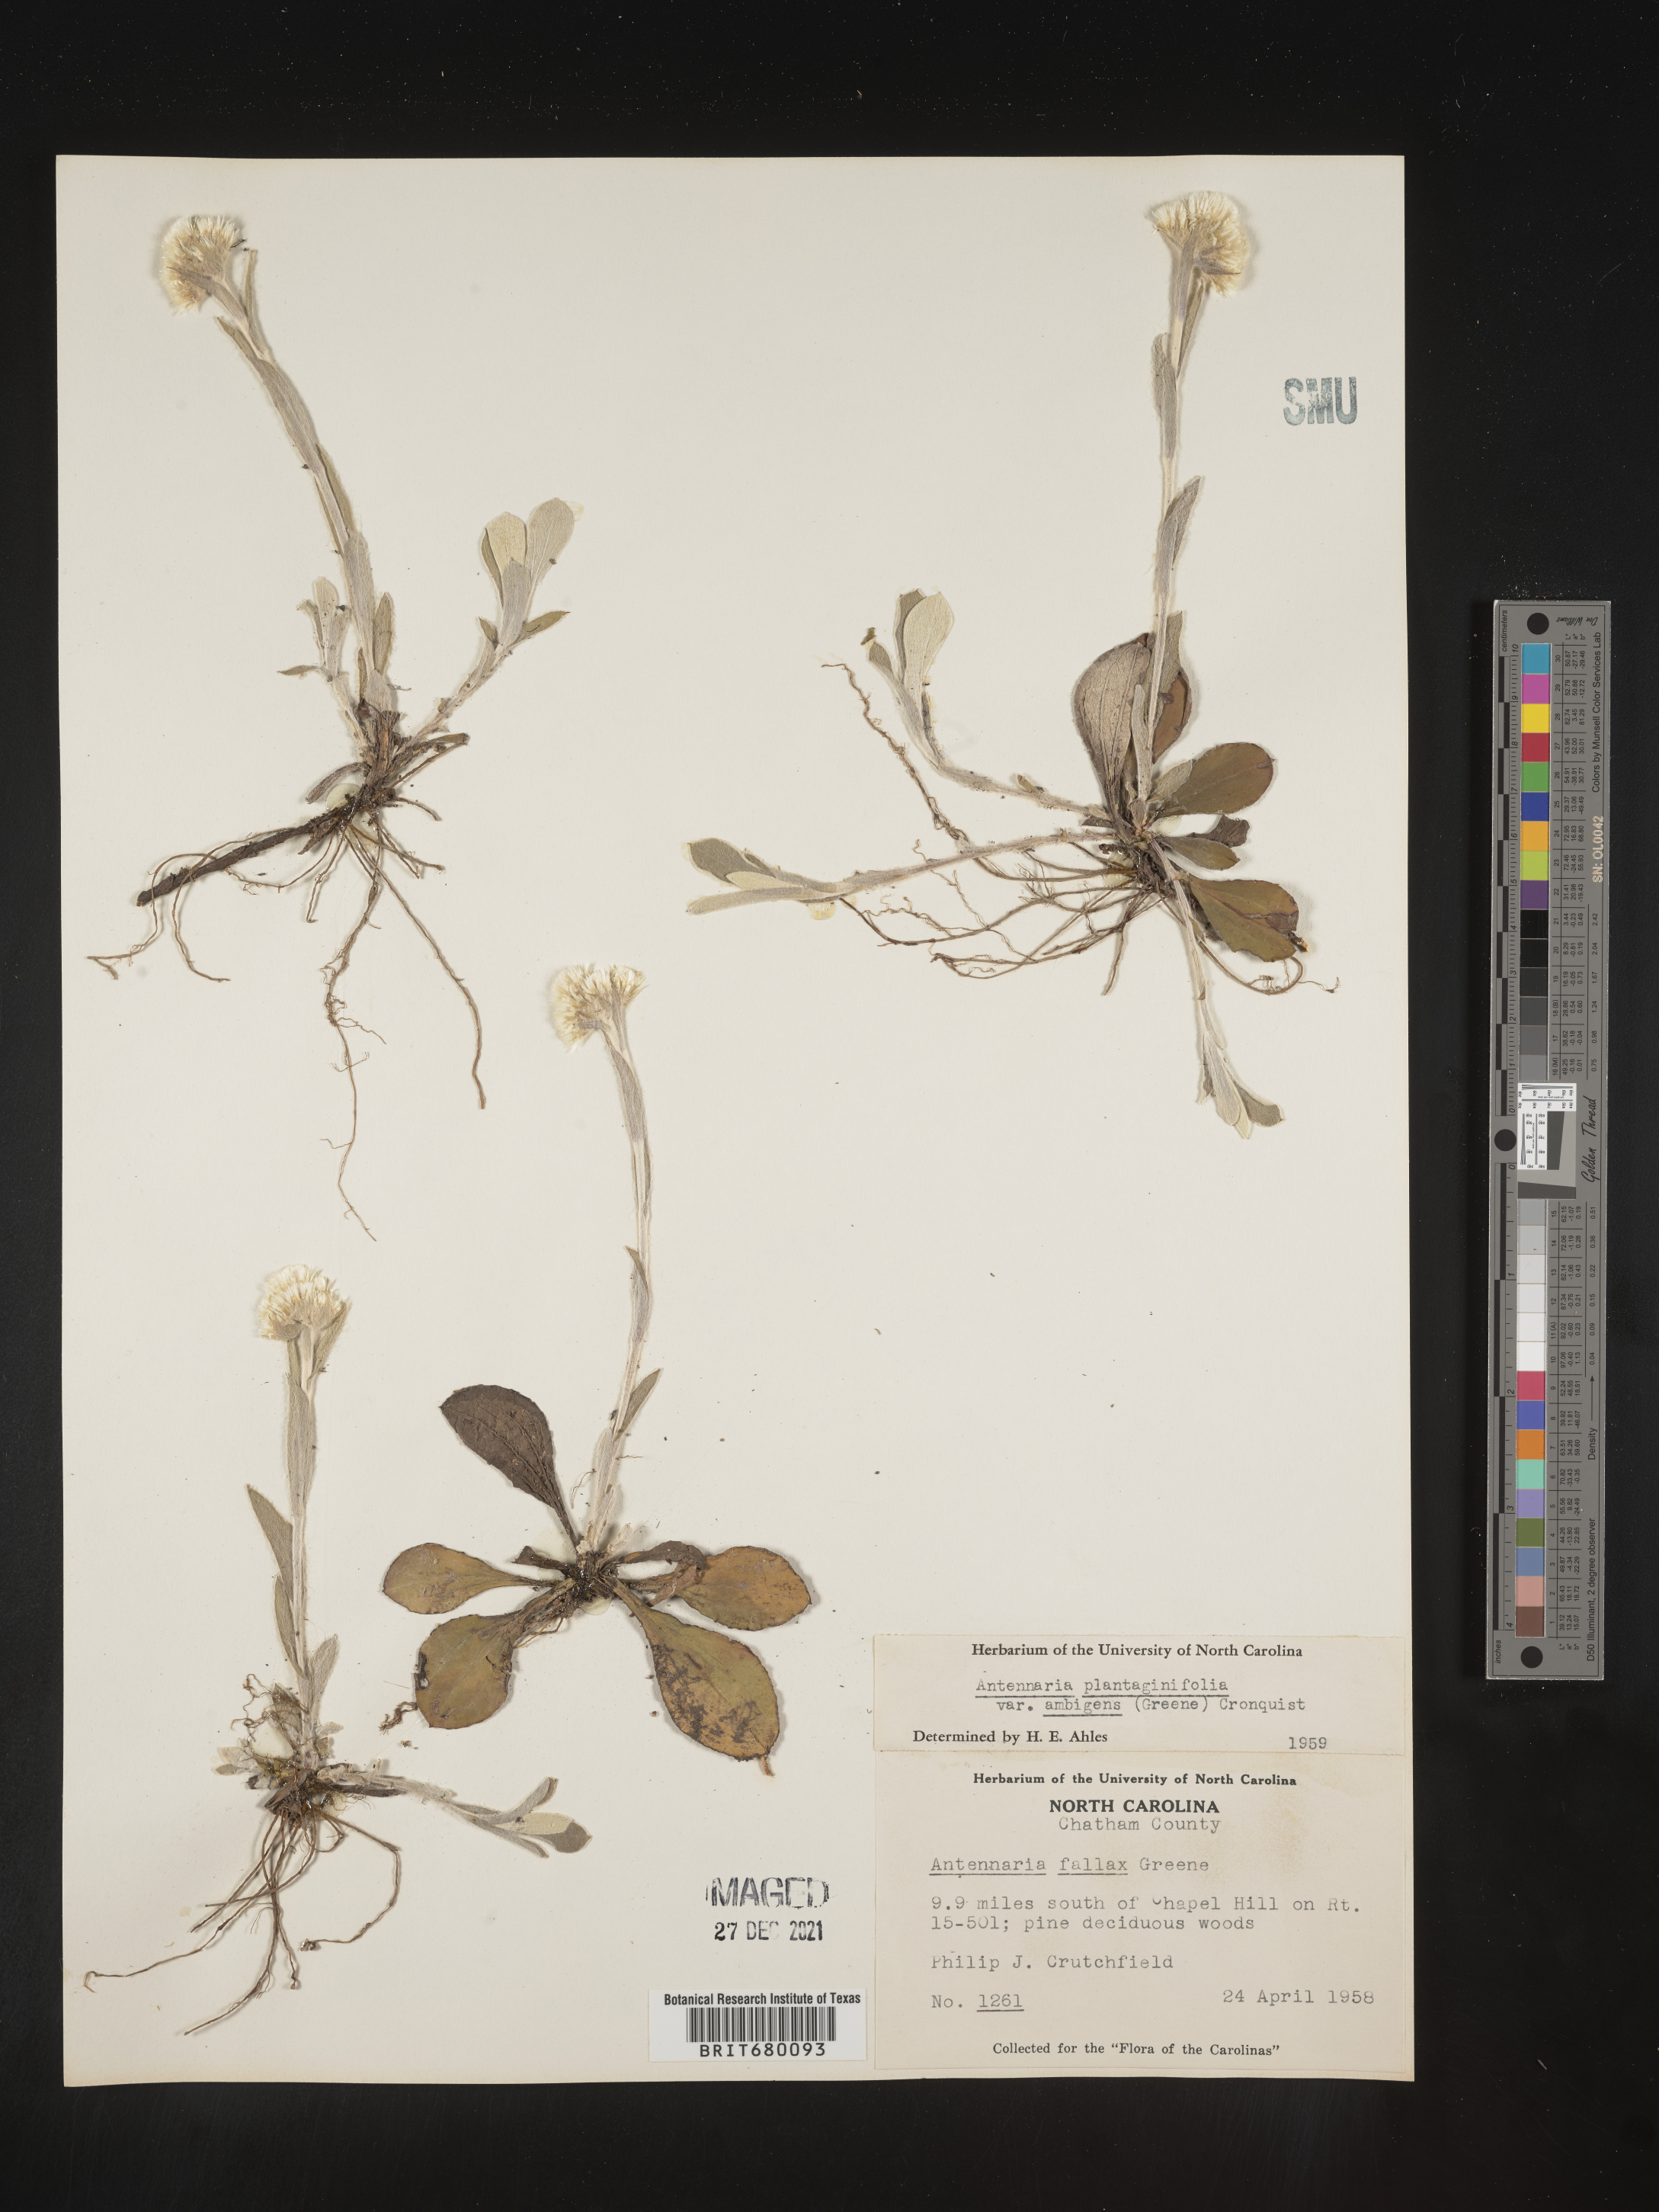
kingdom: Plantae
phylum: Tracheophyta
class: Magnoliopsida
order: Asterales
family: Asteraceae
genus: Antennaria
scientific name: Antennaria plantaginifolia
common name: Plantain-leaved pussytoes
